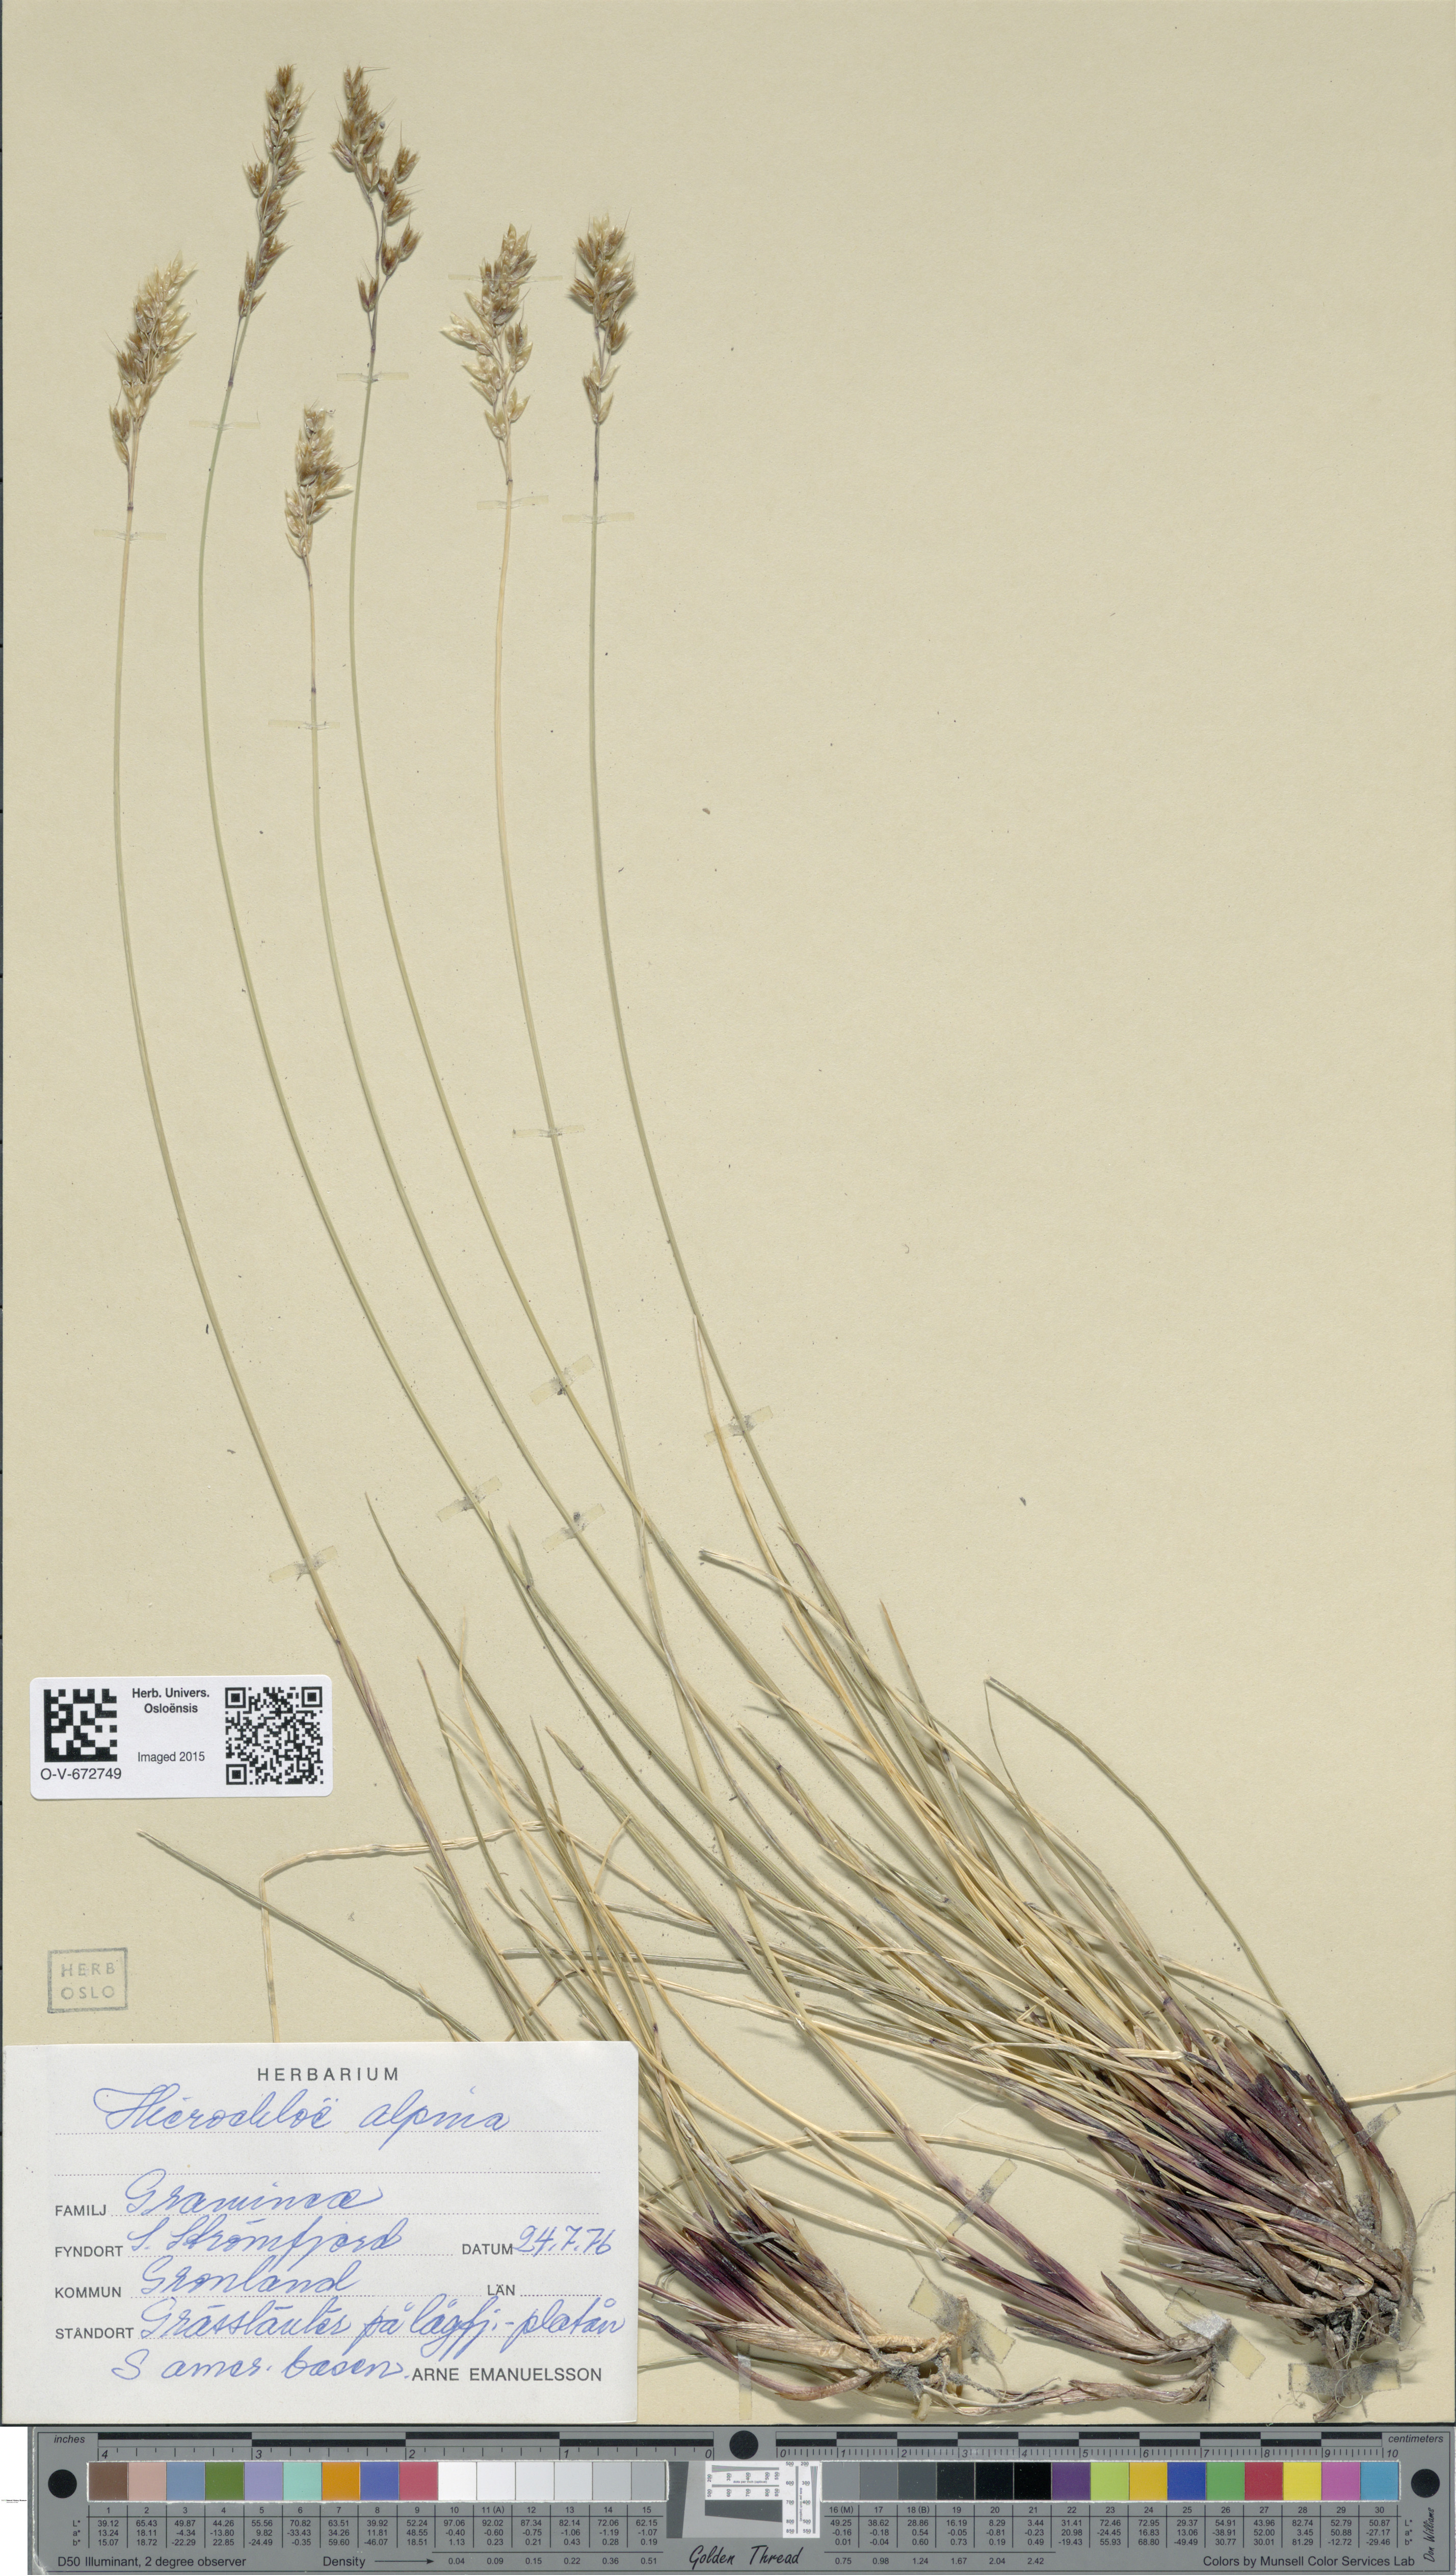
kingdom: Plantae
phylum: Tracheophyta
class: Liliopsida
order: Poales
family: Poaceae
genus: Anthoxanthum
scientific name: Anthoxanthum monticola
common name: Alpine sweetgrass
